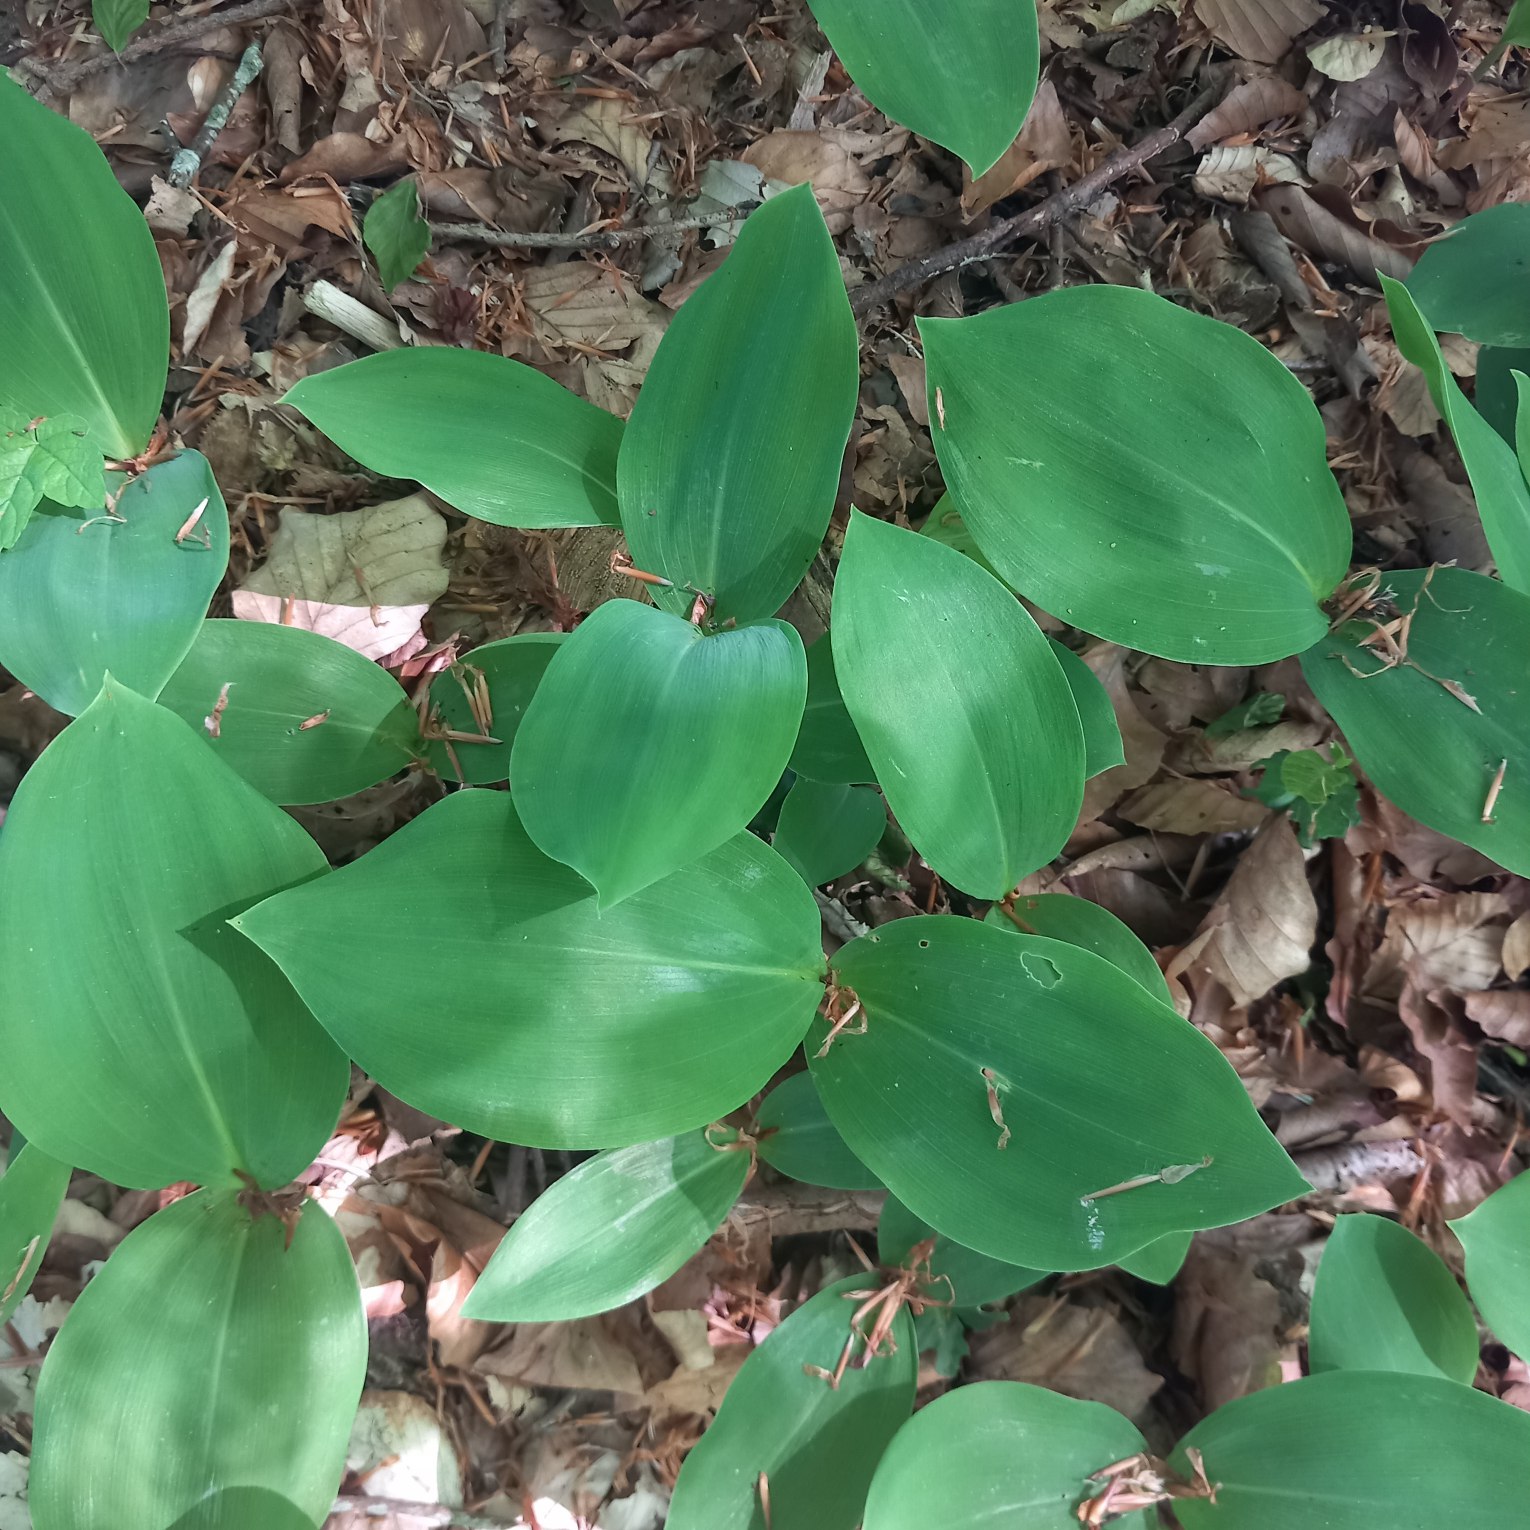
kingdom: Plantae
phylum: Tracheophyta
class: Liliopsida
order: Asparagales
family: Asparagaceae
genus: Convallaria
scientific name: Convallaria majalis
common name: Liljekonval
